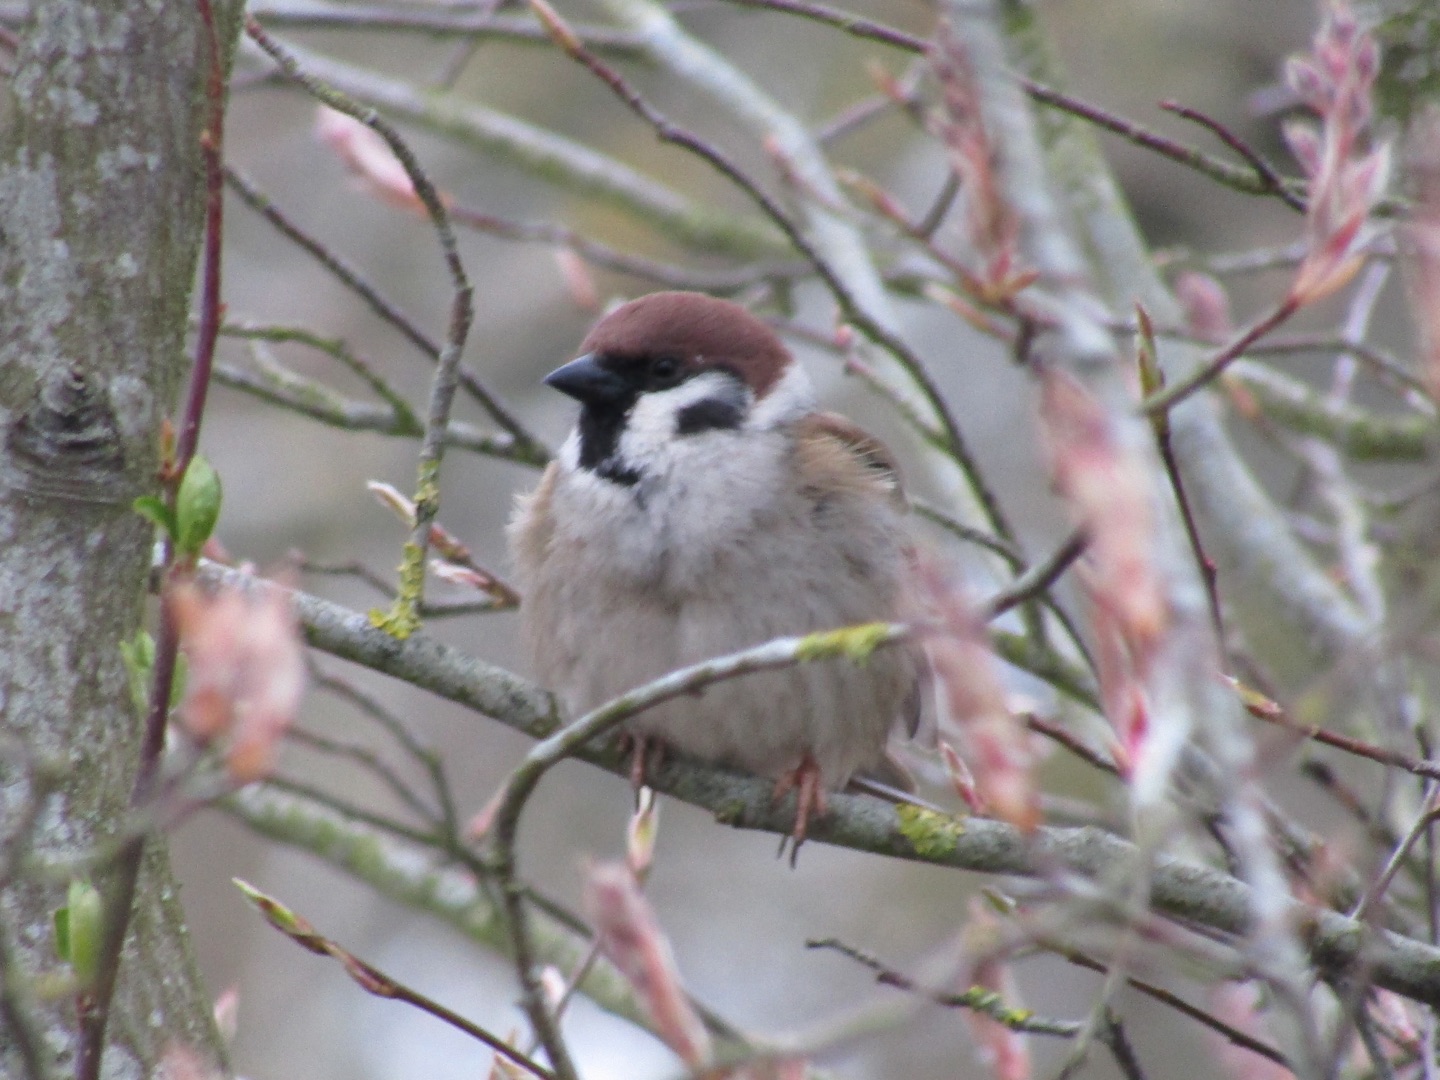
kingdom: Animalia
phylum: Chordata
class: Aves
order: Passeriformes
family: Passeridae
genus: Passer
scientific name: Passer montanus
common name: Skovspurv
